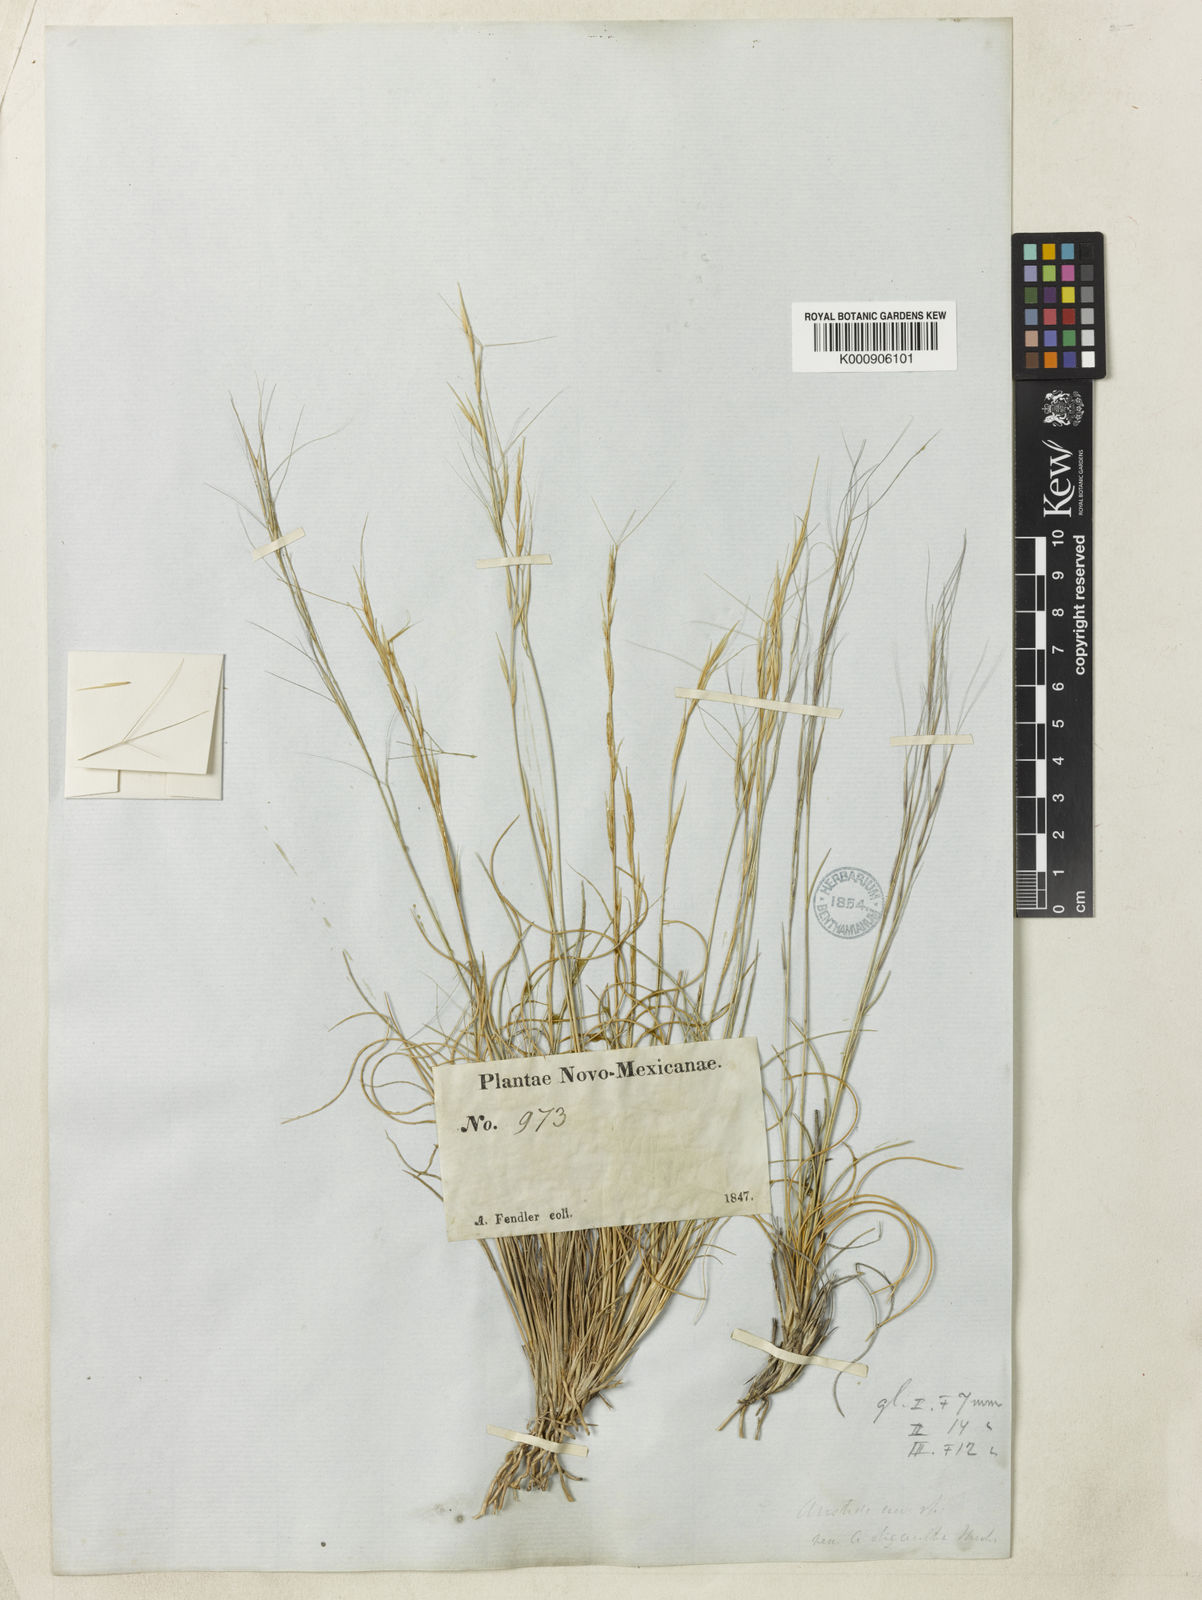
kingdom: Plantae
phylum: Tracheophyta
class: Liliopsida
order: Poales
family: Poaceae
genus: Aristida
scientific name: Aristida fendleriana
